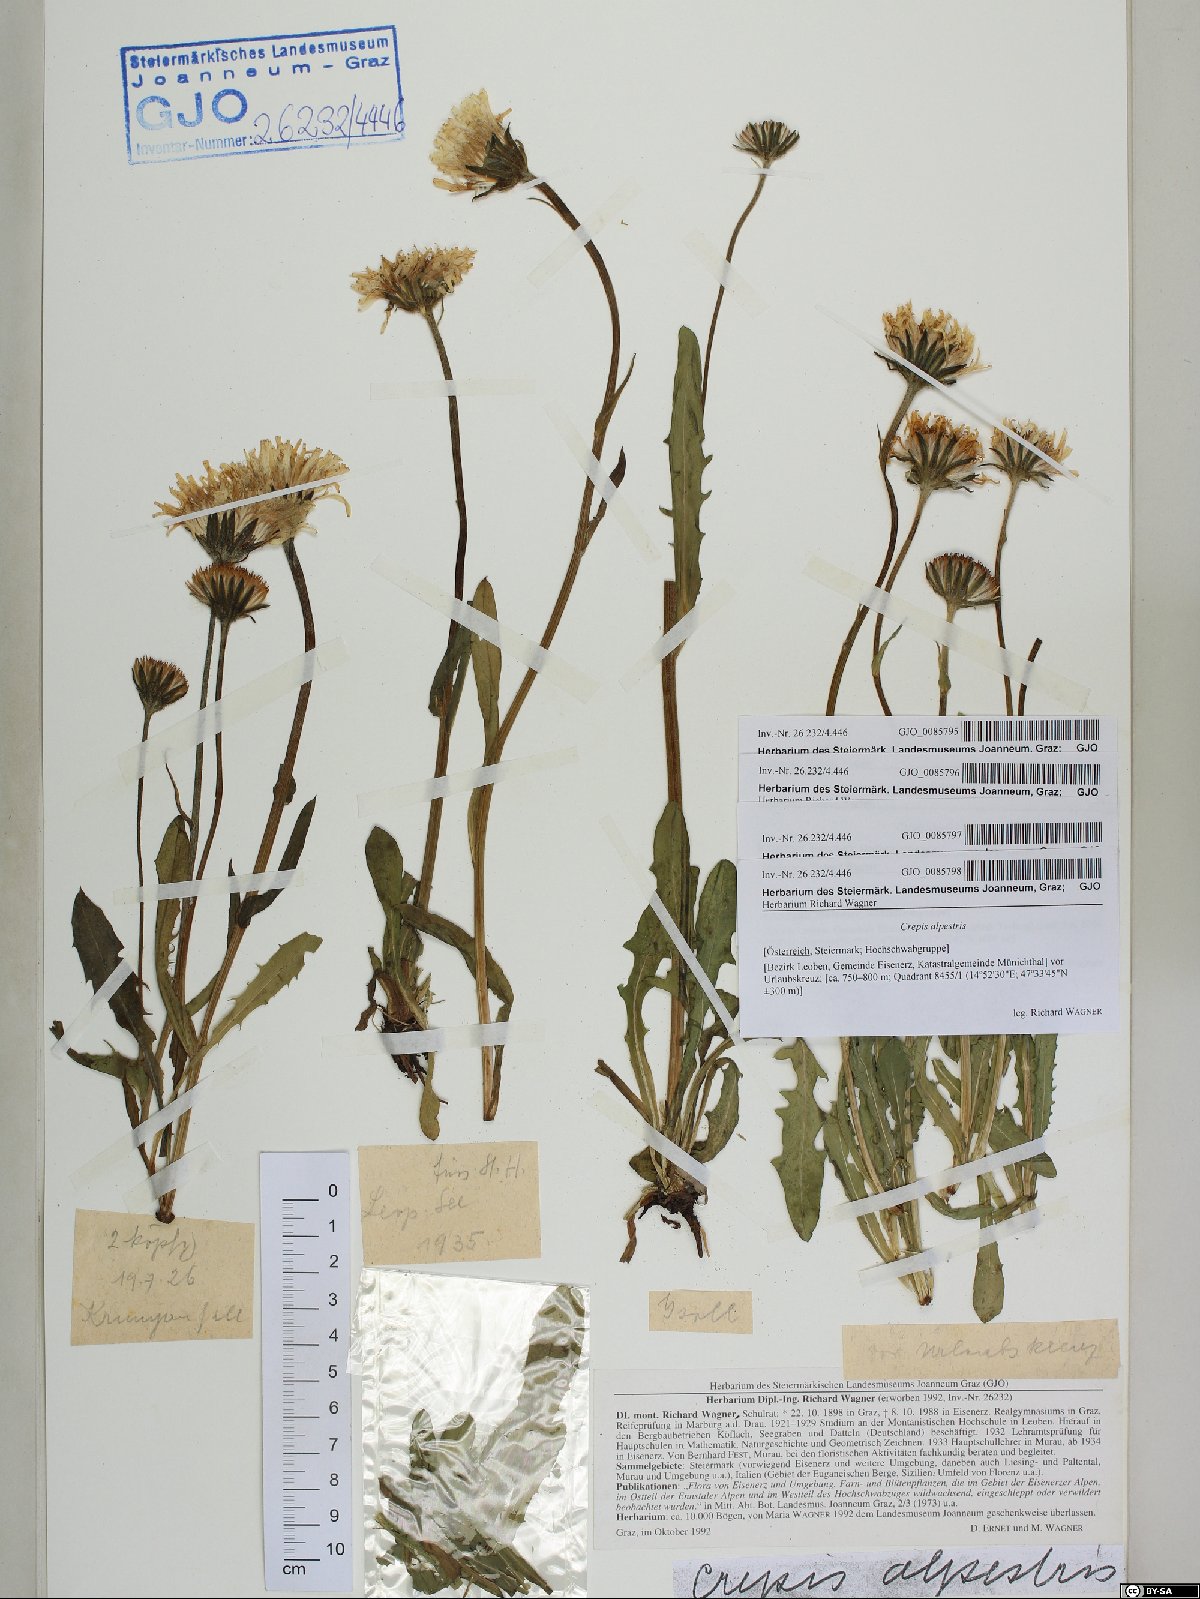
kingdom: Plantae
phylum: Tracheophyta
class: Magnoliopsida
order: Asterales
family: Asteraceae
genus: Crepis
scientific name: Crepis alpestris
